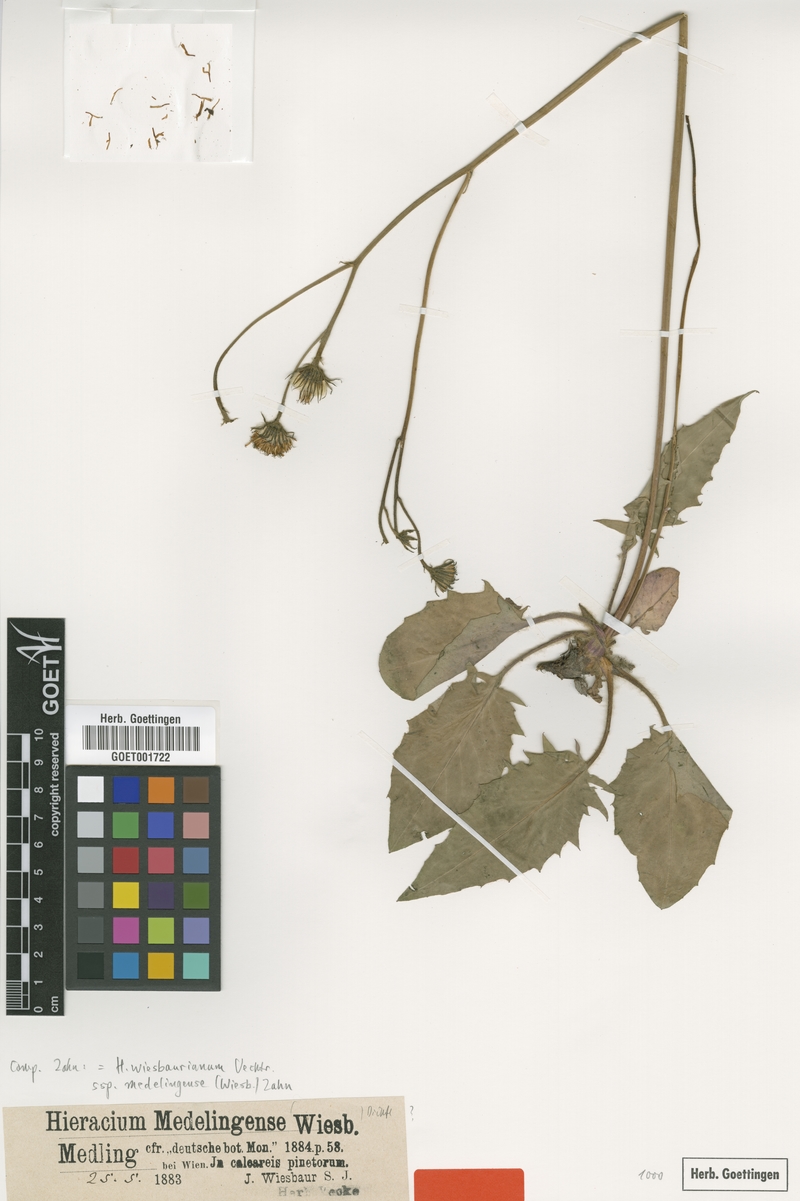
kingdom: Plantae
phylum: Tracheophyta
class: Magnoliopsida
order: Asterales
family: Asteraceae
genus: Hieracium
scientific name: Hieracium hypochoeroides
